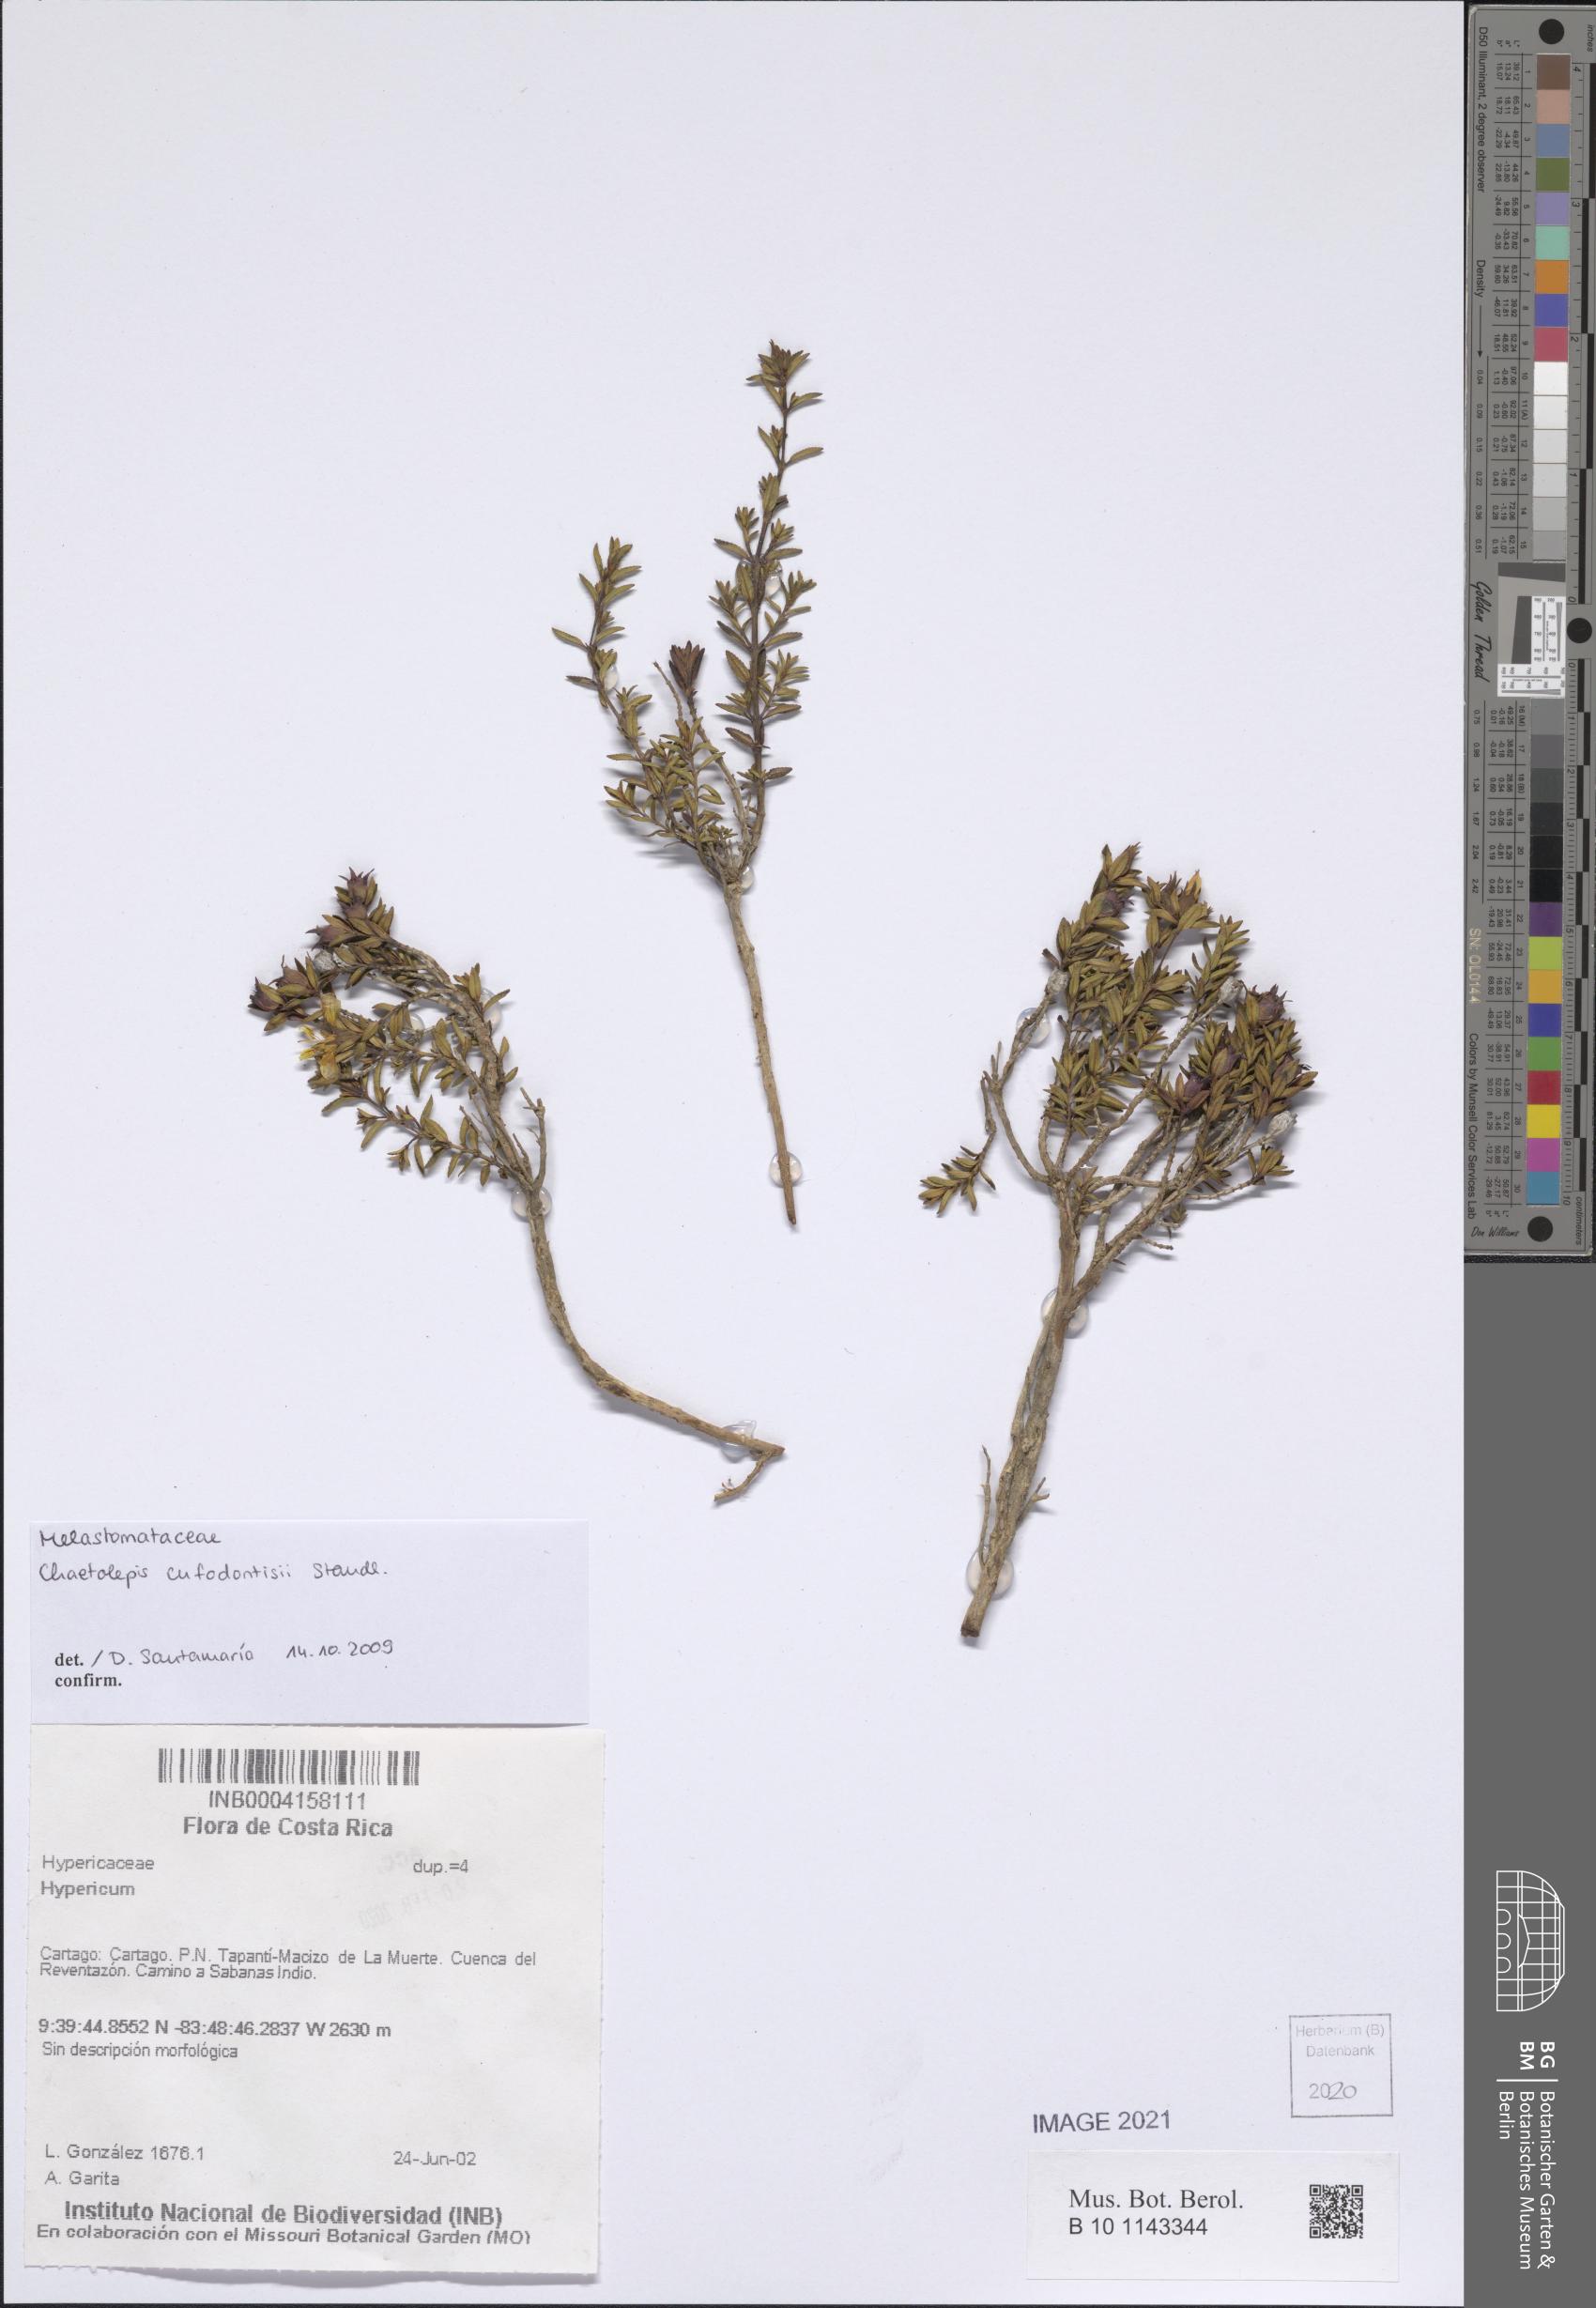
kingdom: Plantae
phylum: Tracheophyta
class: Magnoliopsida
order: Myrtales
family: Melastomataceae
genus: Chaetolepis
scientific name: Chaetolepis cufodontisii
